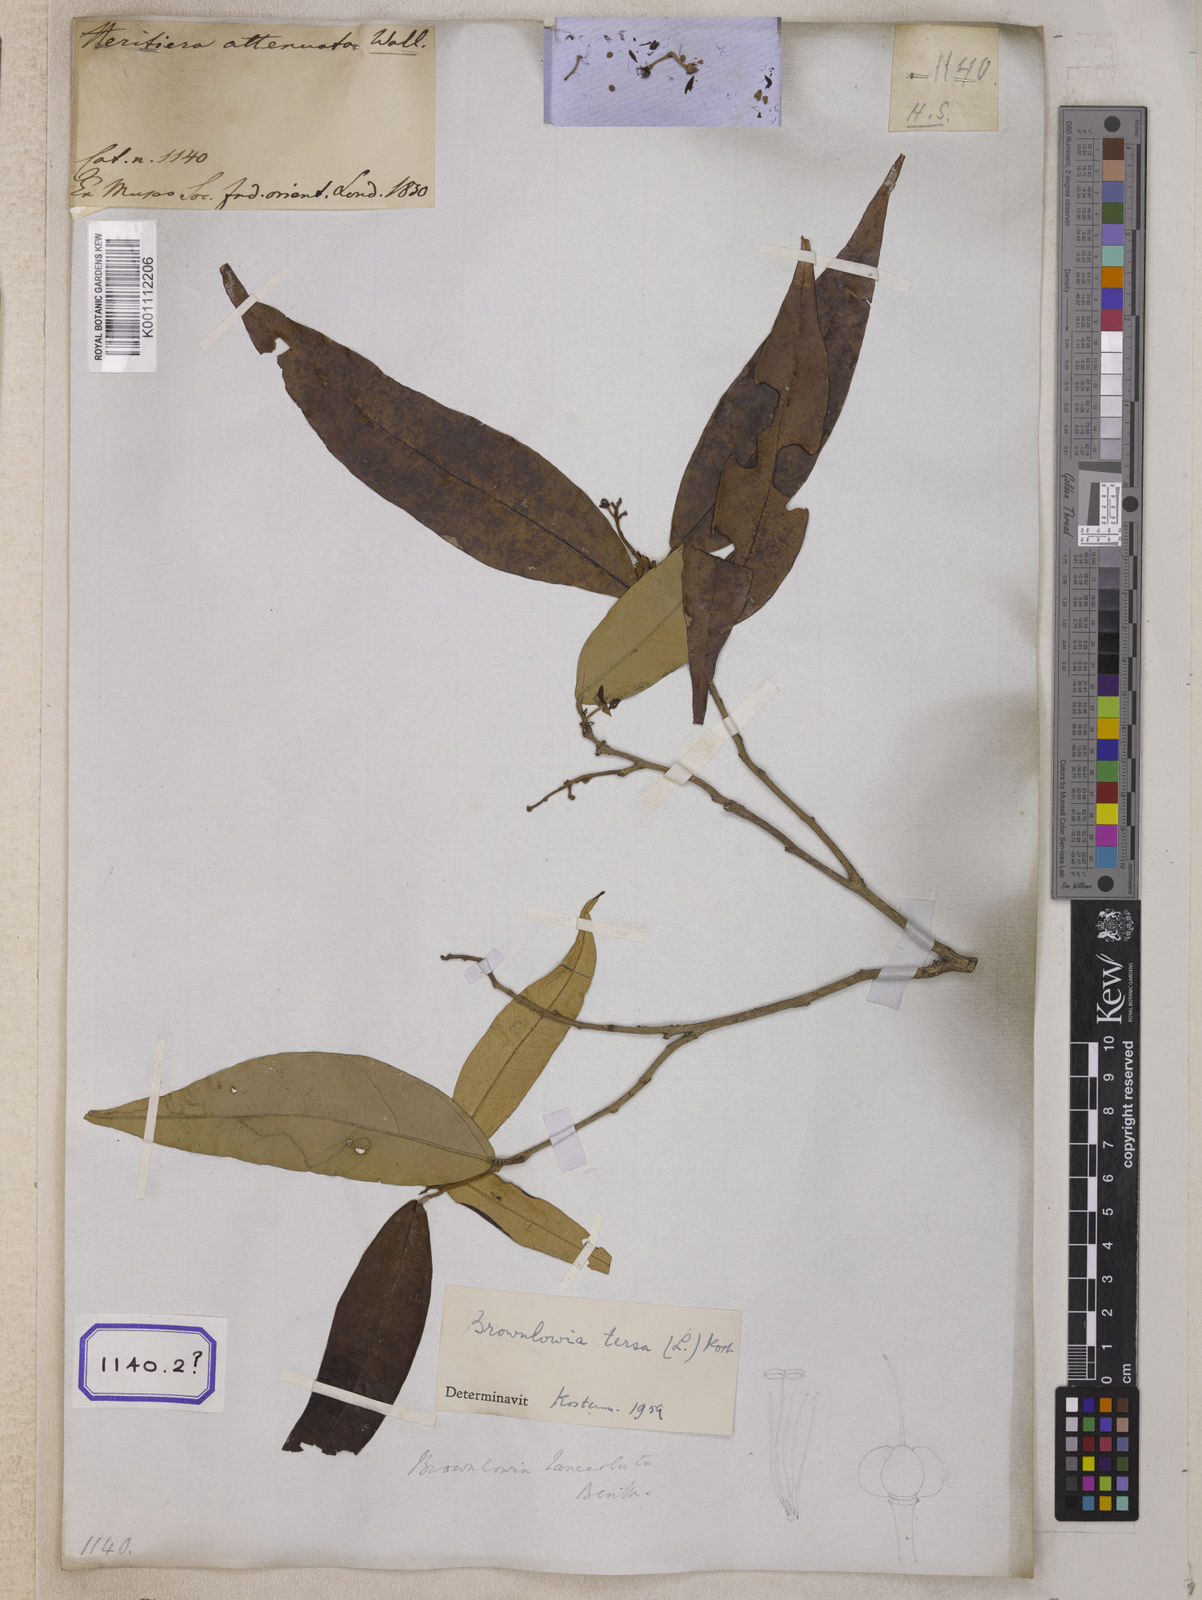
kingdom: Plantae
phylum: Tracheophyta
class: Magnoliopsida
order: Malvales
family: Malvaceae
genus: Brownlowia
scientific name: Brownlowia tersa
